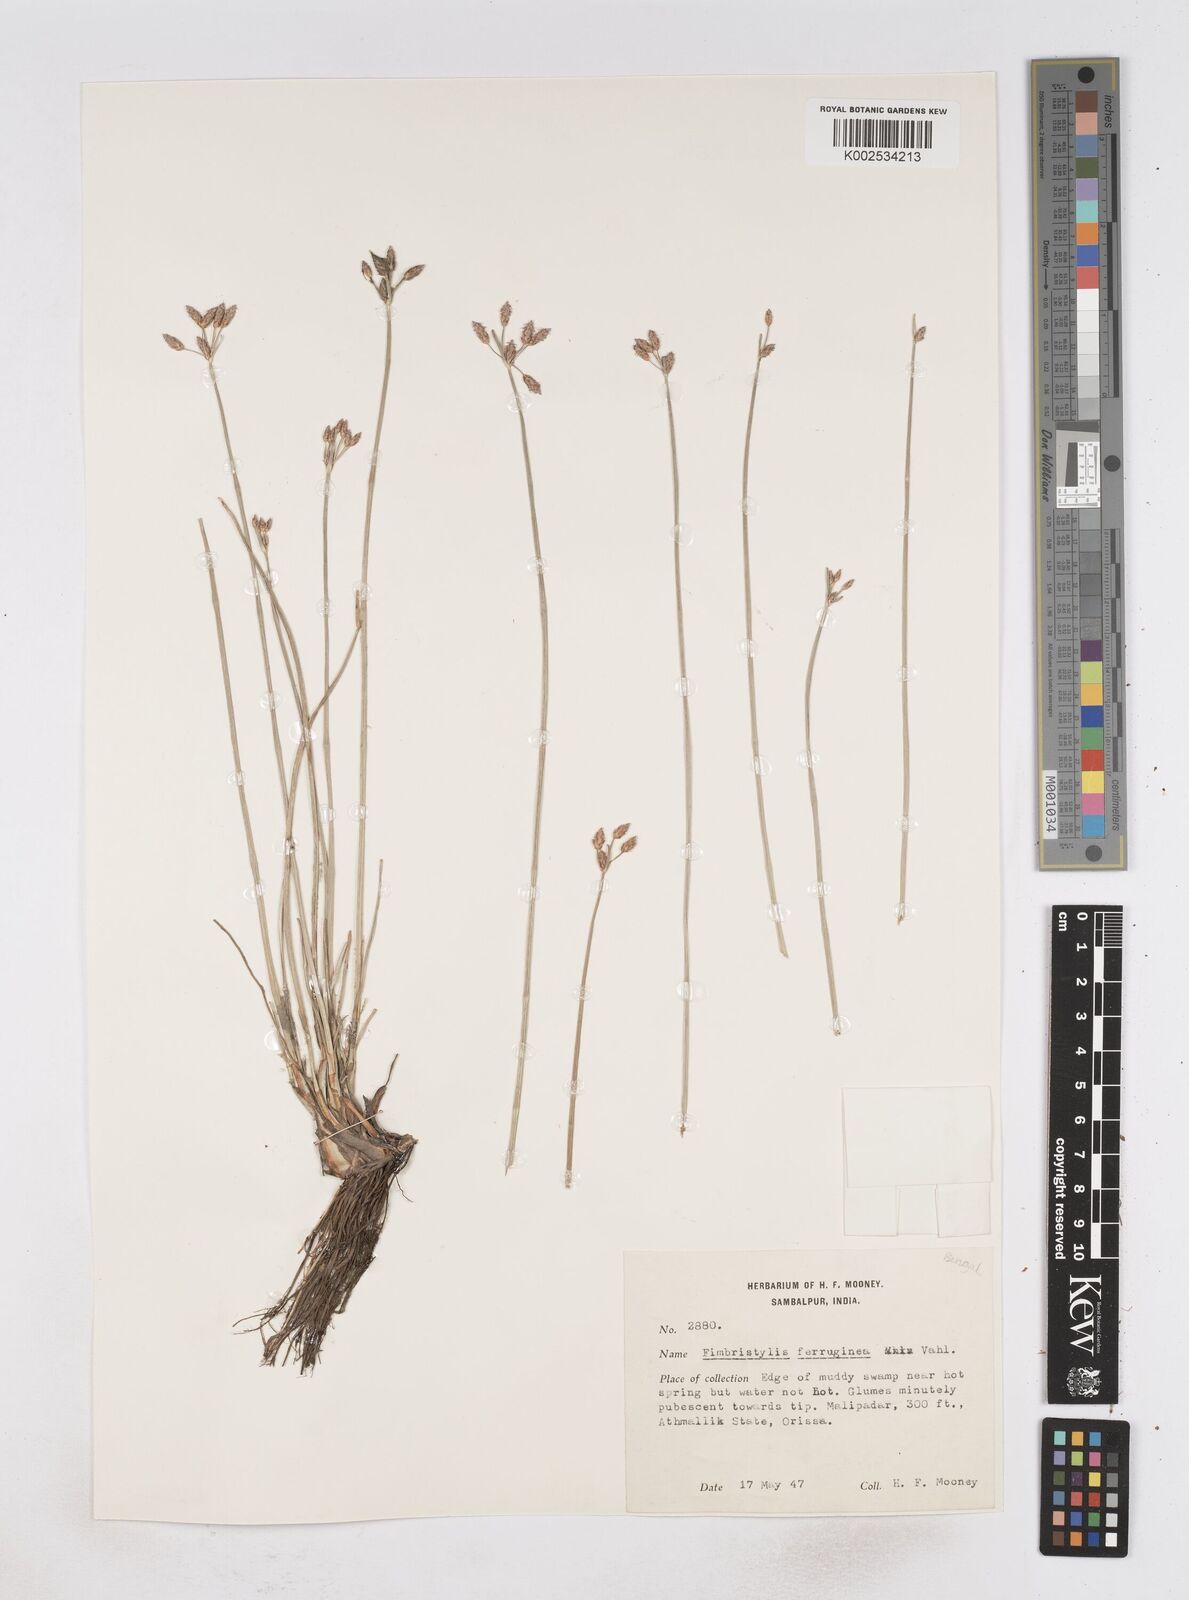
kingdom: Plantae
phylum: Tracheophyta
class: Liliopsida
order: Poales
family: Cyperaceae
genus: Fimbristylis
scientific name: Fimbristylis ferruginea
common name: West indian fimbry
